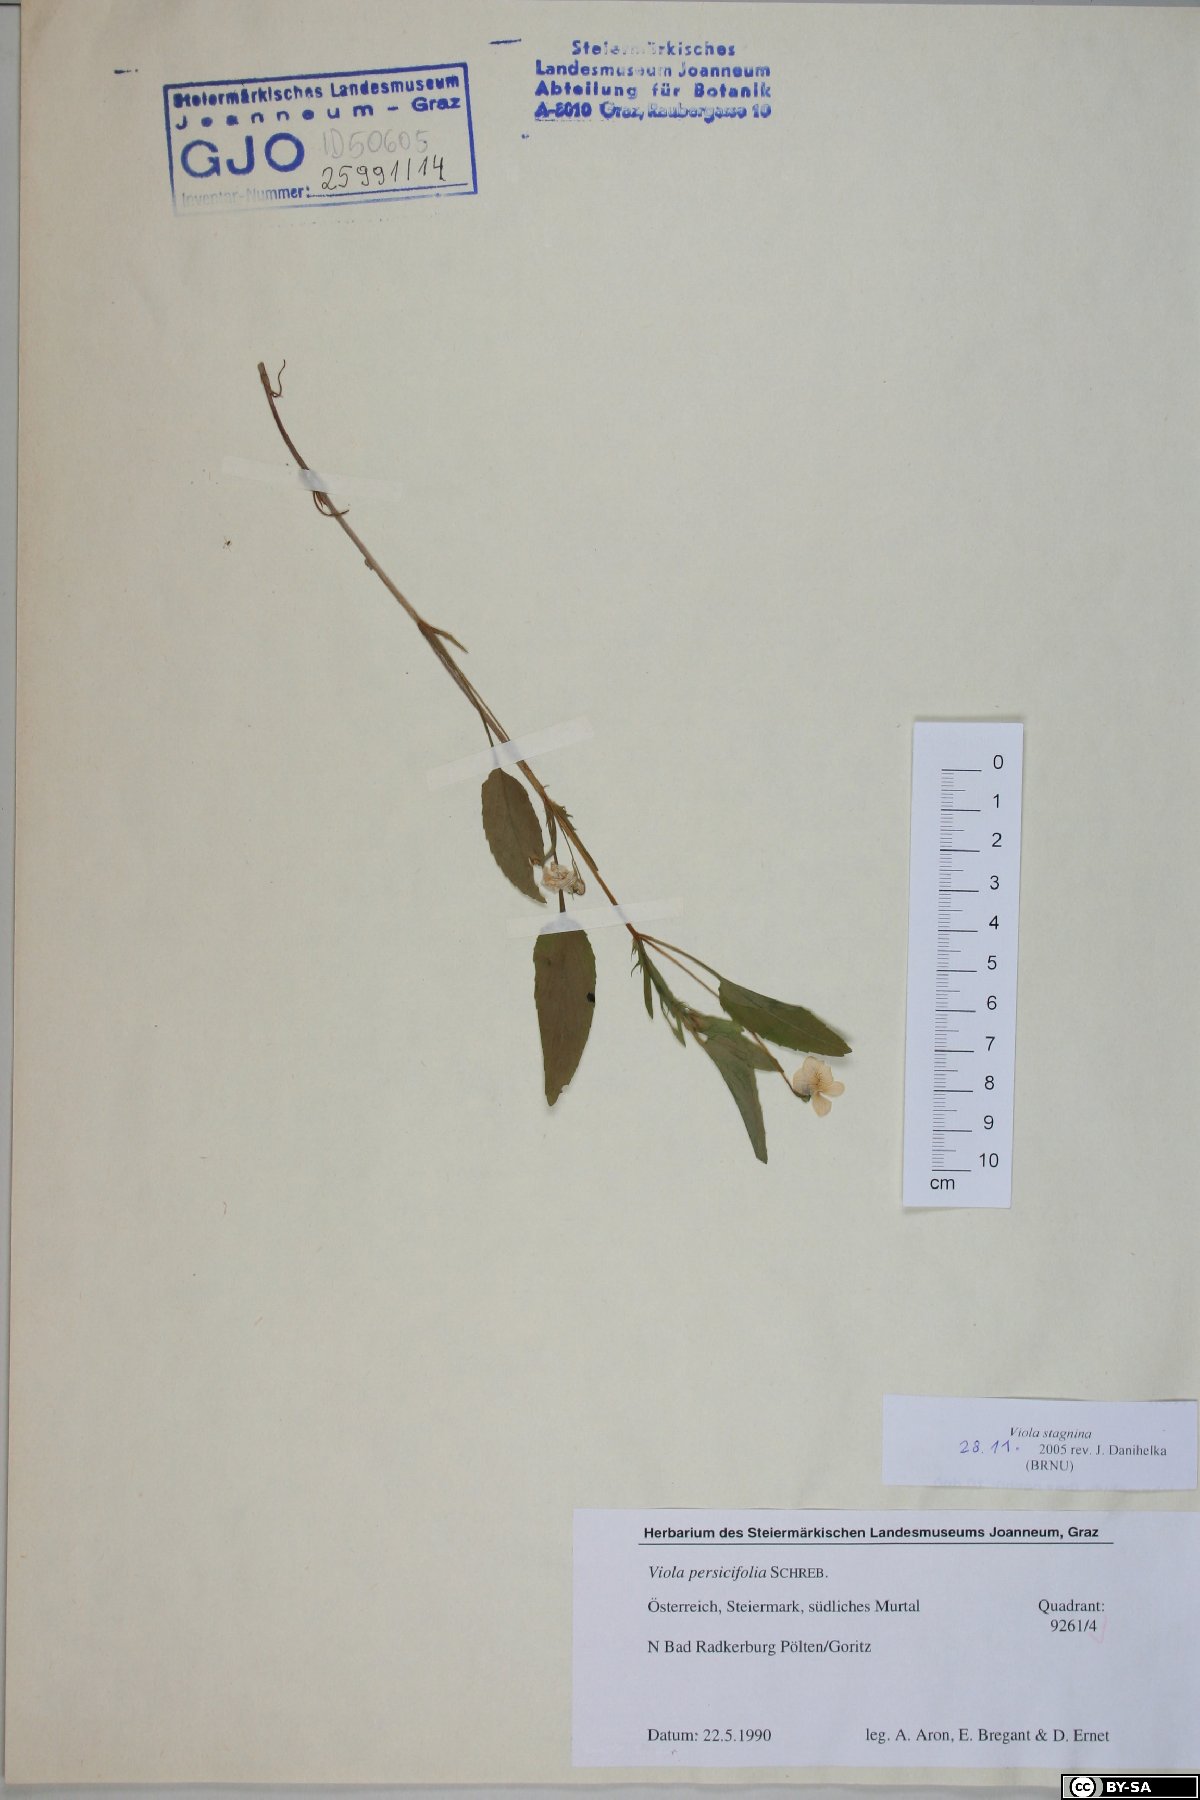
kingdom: Plantae
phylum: Tracheophyta
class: Magnoliopsida
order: Malpighiales
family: Violaceae
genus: Viola
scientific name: Viola stagnina
